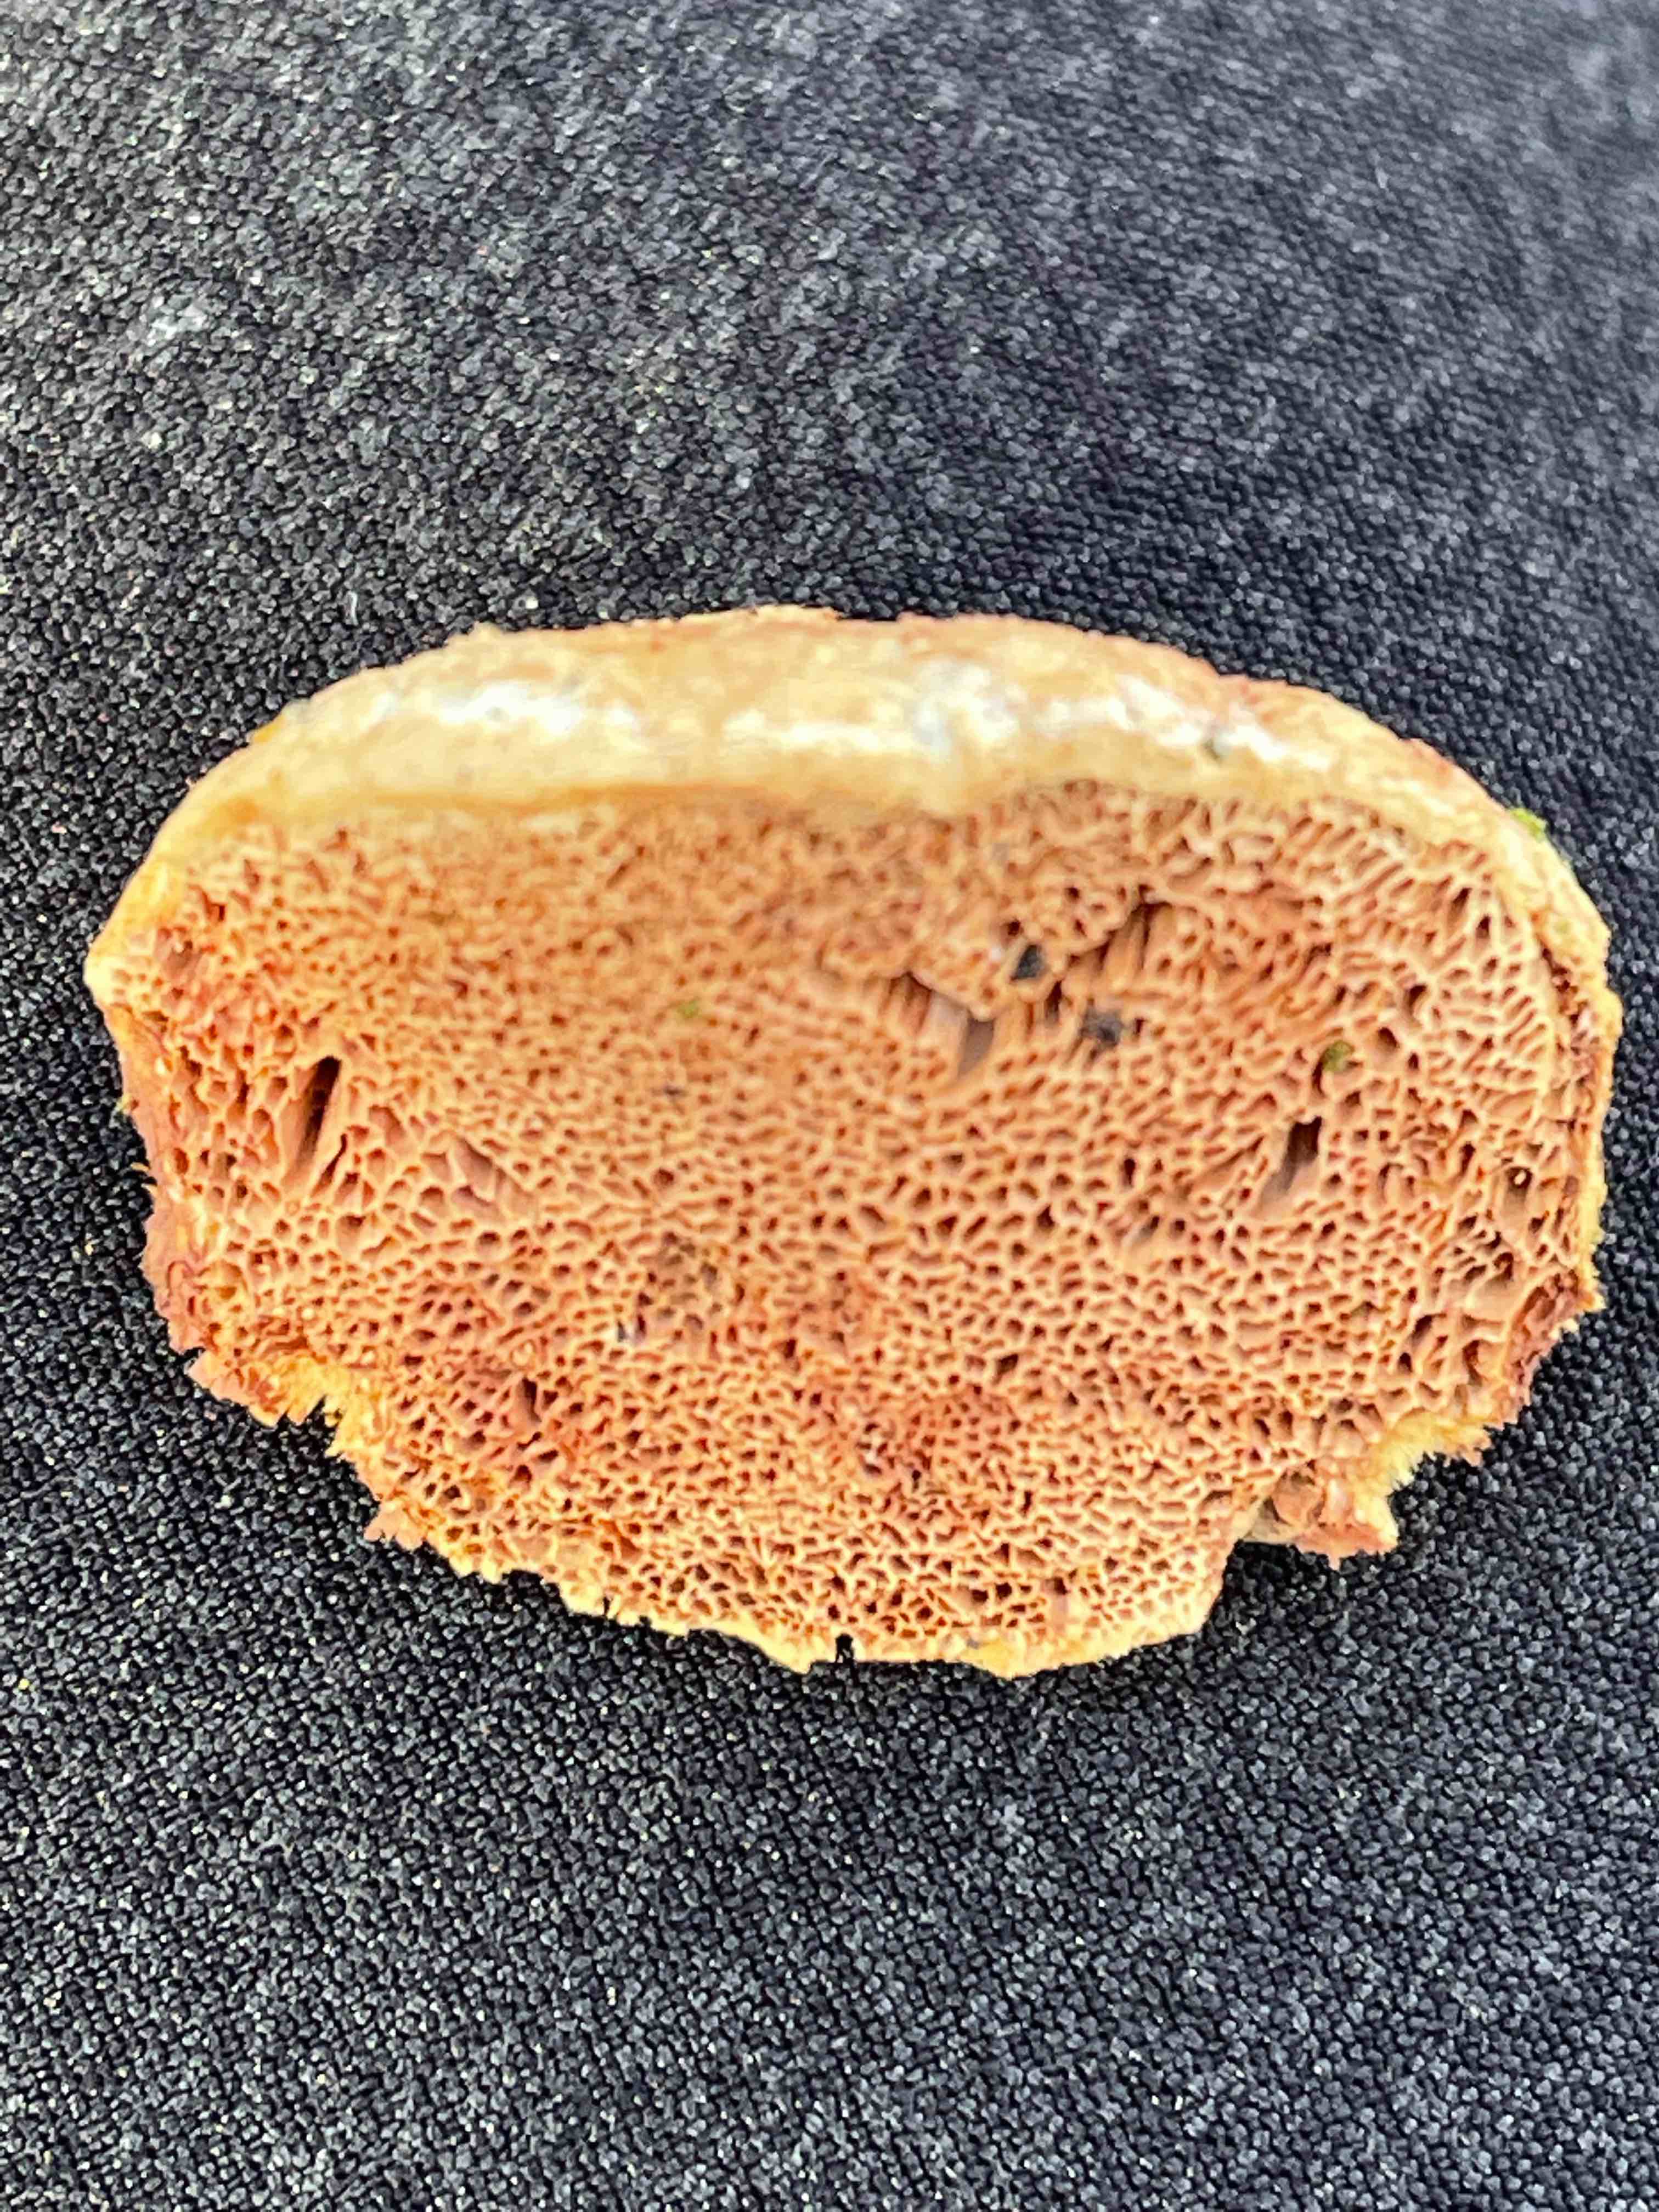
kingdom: Fungi
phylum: Basidiomycota
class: Agaricomycetes
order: Polyporales
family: Phanerochaetaceae
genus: Hapalopilus
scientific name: Hapalopilus rutilans
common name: rødlig okkerporesvamp
